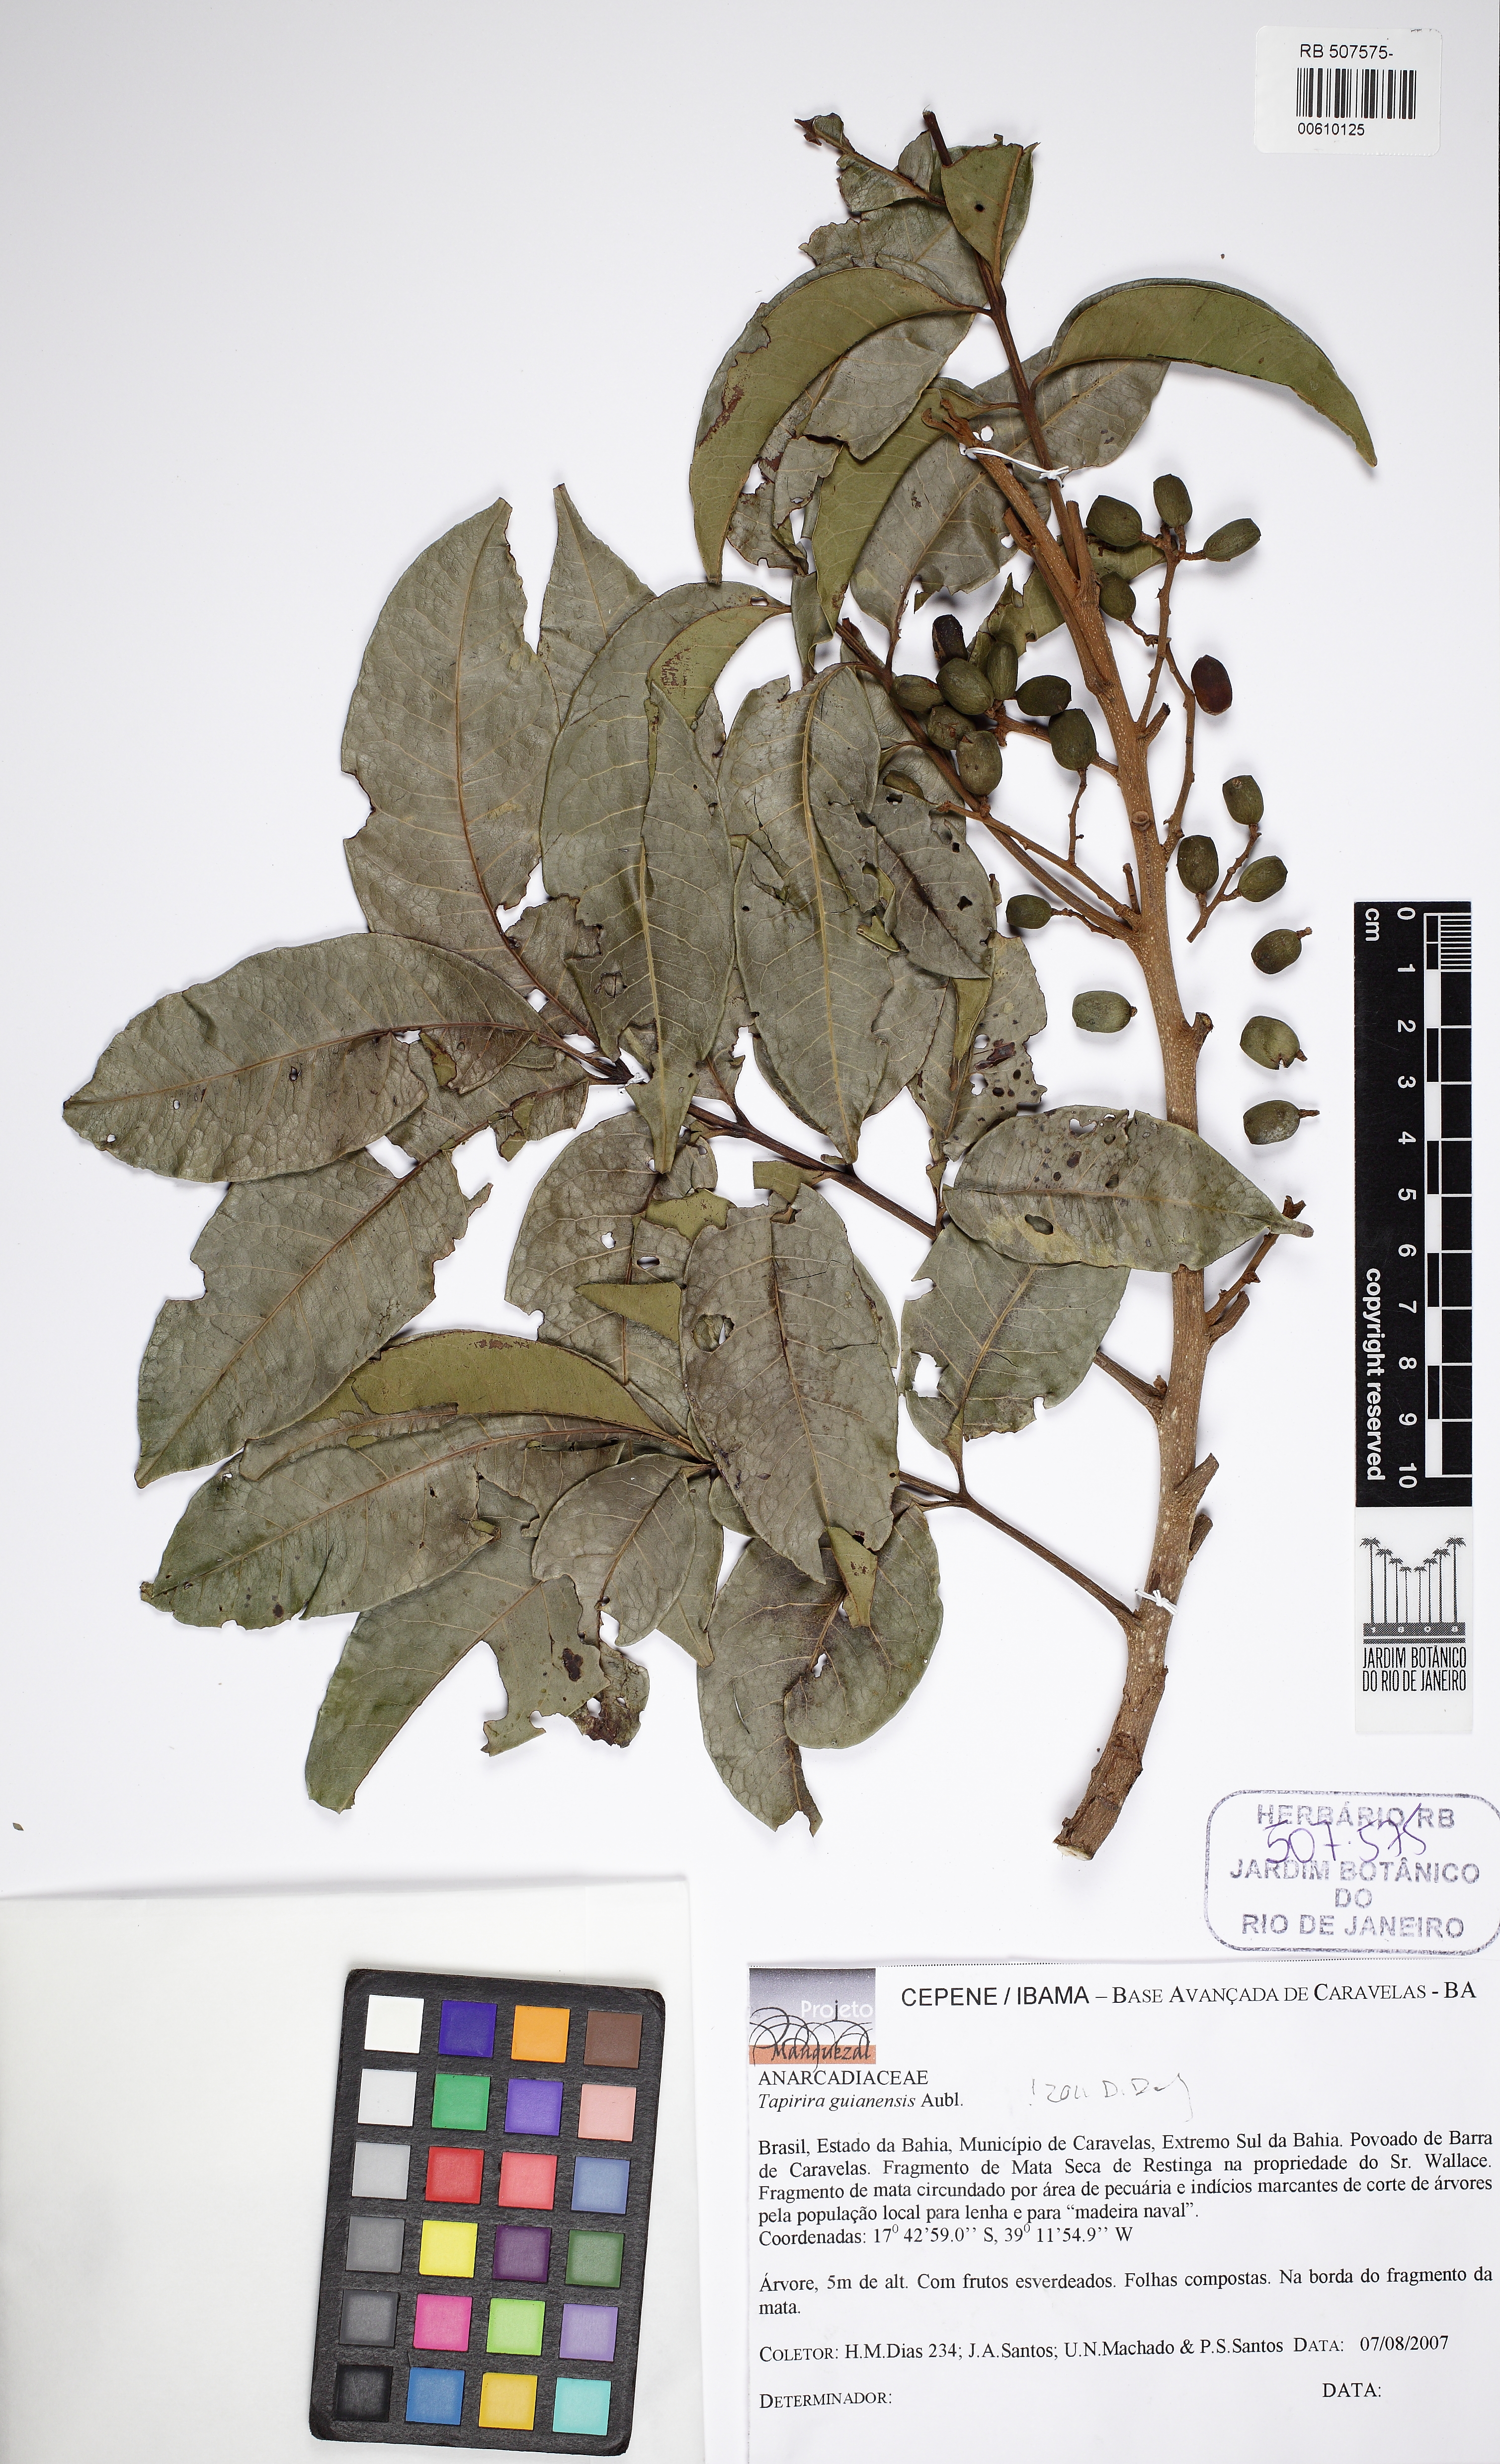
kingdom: Plantae
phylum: Tracheophyta
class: Magnoliopsida
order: Sapindales
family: Anacardiaceae
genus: Tapirira
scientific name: Tapirira guianensis
